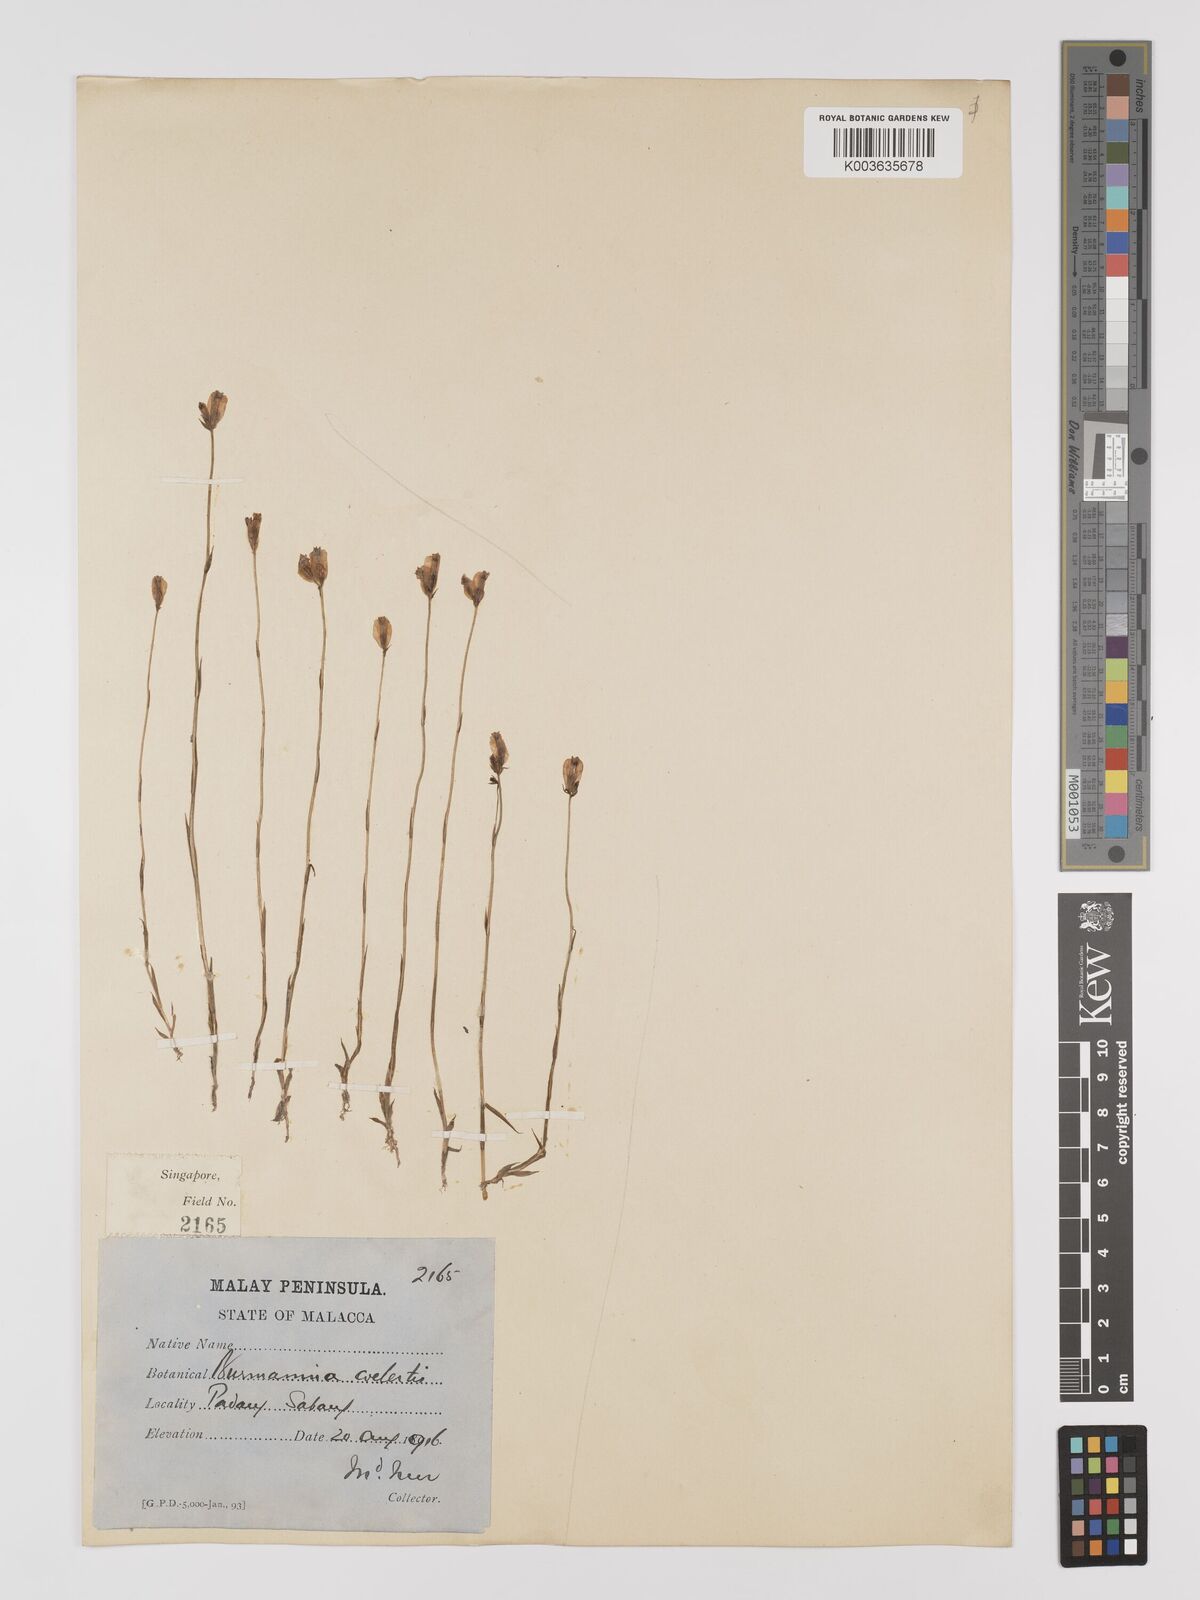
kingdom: Plantae
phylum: Tracheophyta
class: Liliopsida
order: Dioscoreales
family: Burmanniaceae
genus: Burmannia
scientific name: Burmannia coelestis
